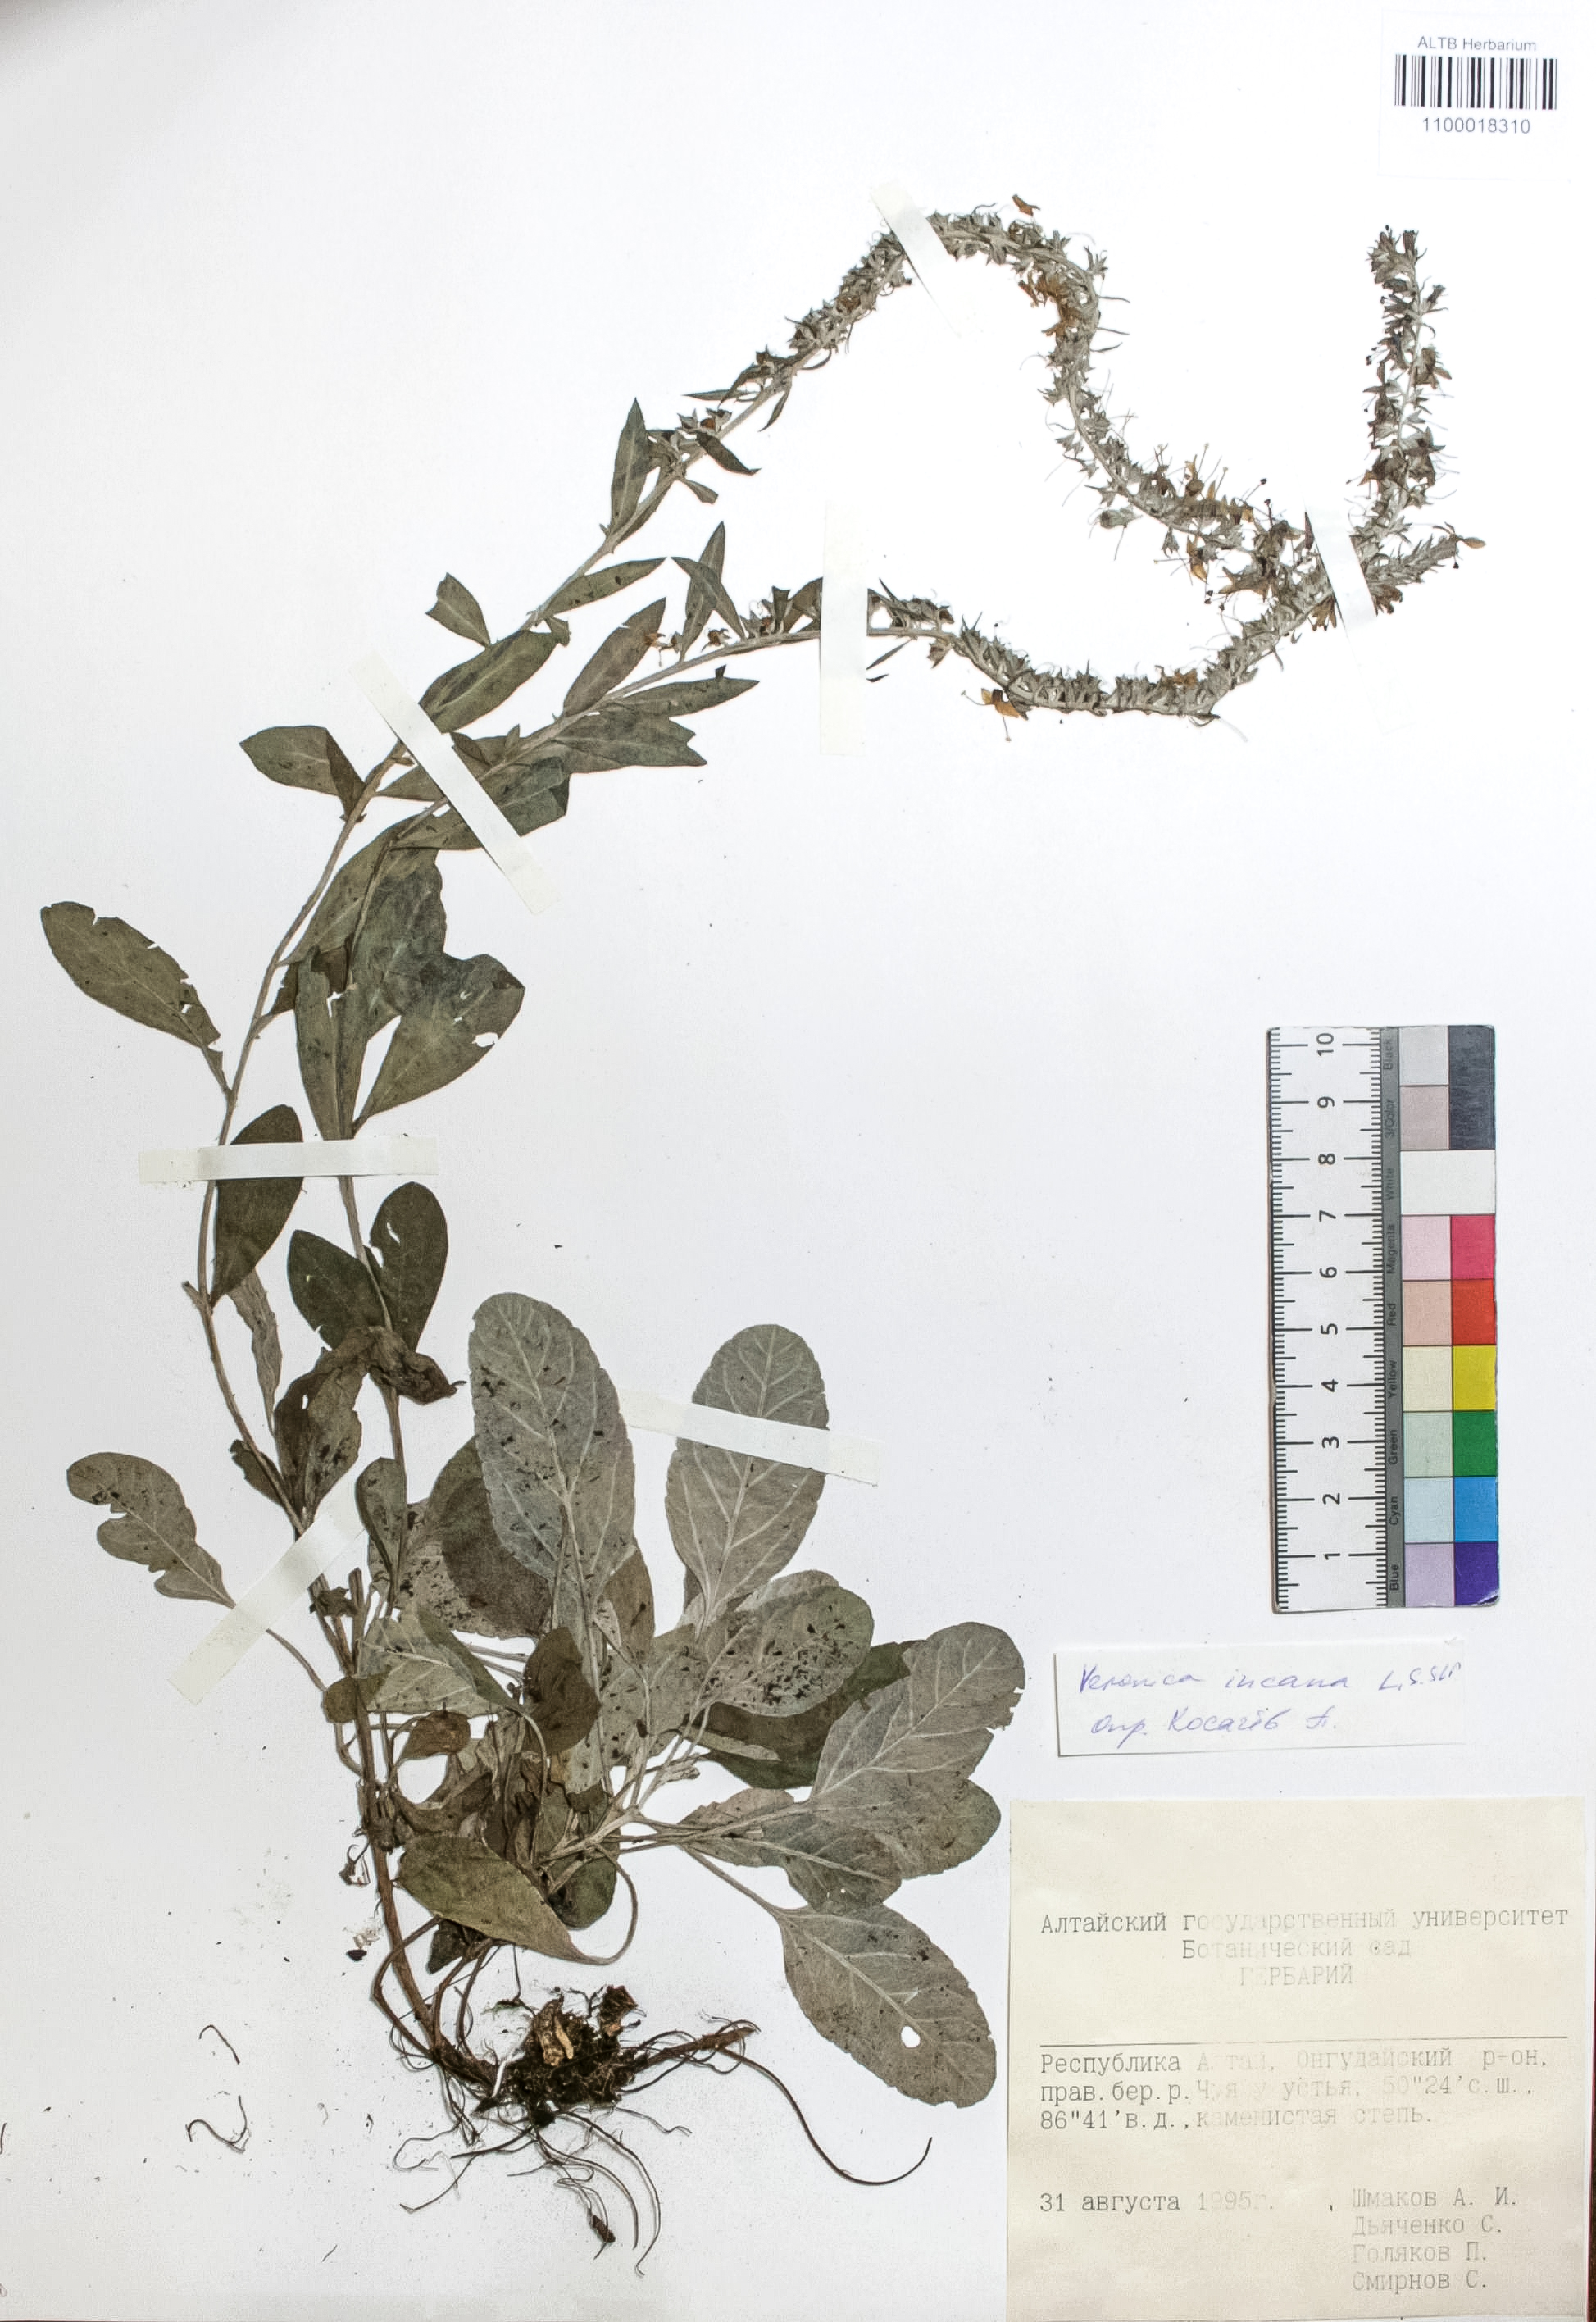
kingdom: Plantae
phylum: Tracheophyta
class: Magnoliopsida
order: Lamiales
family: Plantaginaceae
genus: Veronica
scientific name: Veronica incana
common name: Silver speedwell
